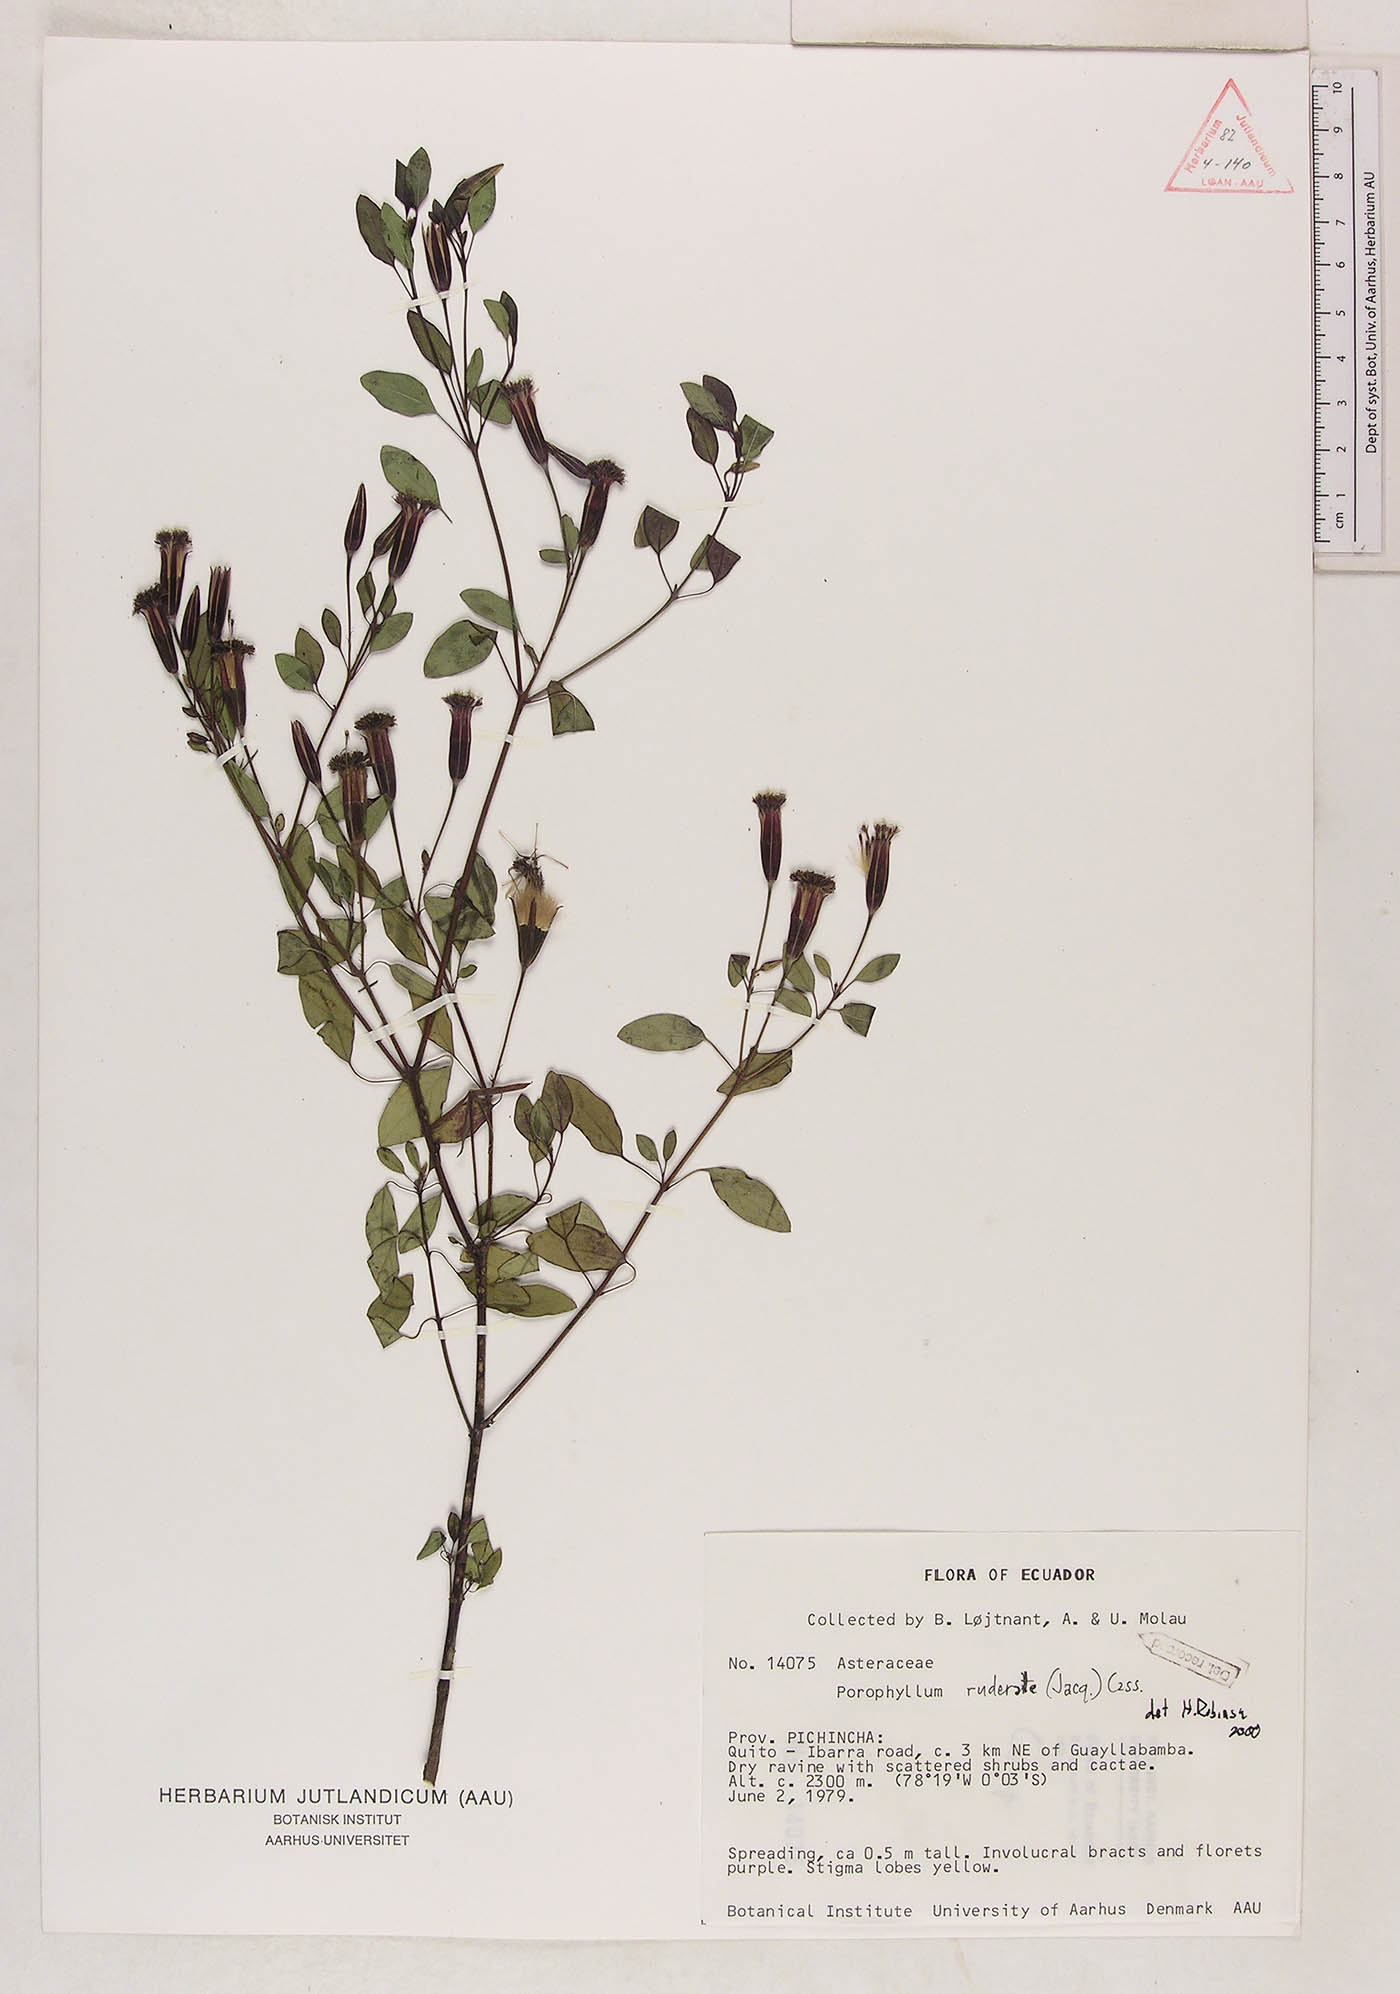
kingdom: Plantae
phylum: Tracheophyta
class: Magnoliopsida
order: Asterales
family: Asteraceae
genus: Porophyllum
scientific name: Porophyllum ruderale
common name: Yerba porosa
